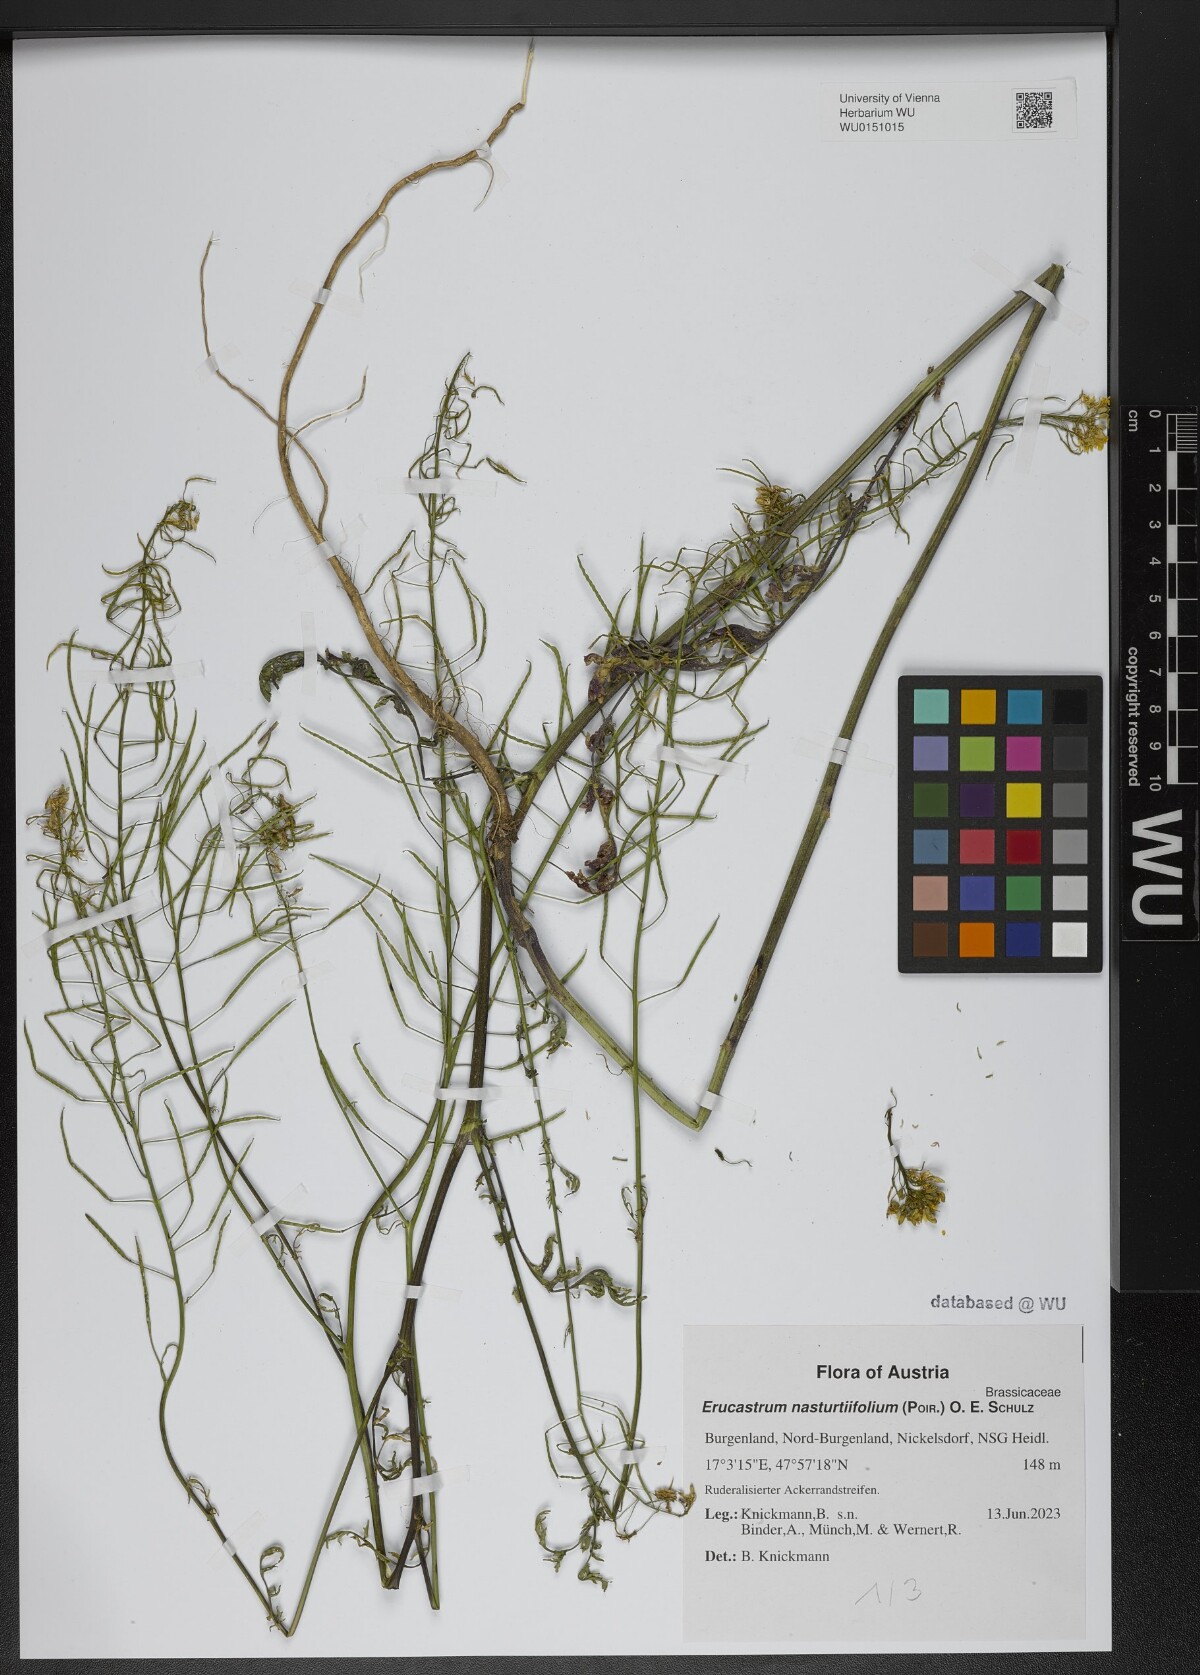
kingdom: Plantae
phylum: Tracheophyta
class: Magnoliopsida
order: Brassicales
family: Brassicaceae
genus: Erucastrum
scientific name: Erucastrum nasturtiifolium
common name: Watercress-leaf rocket
